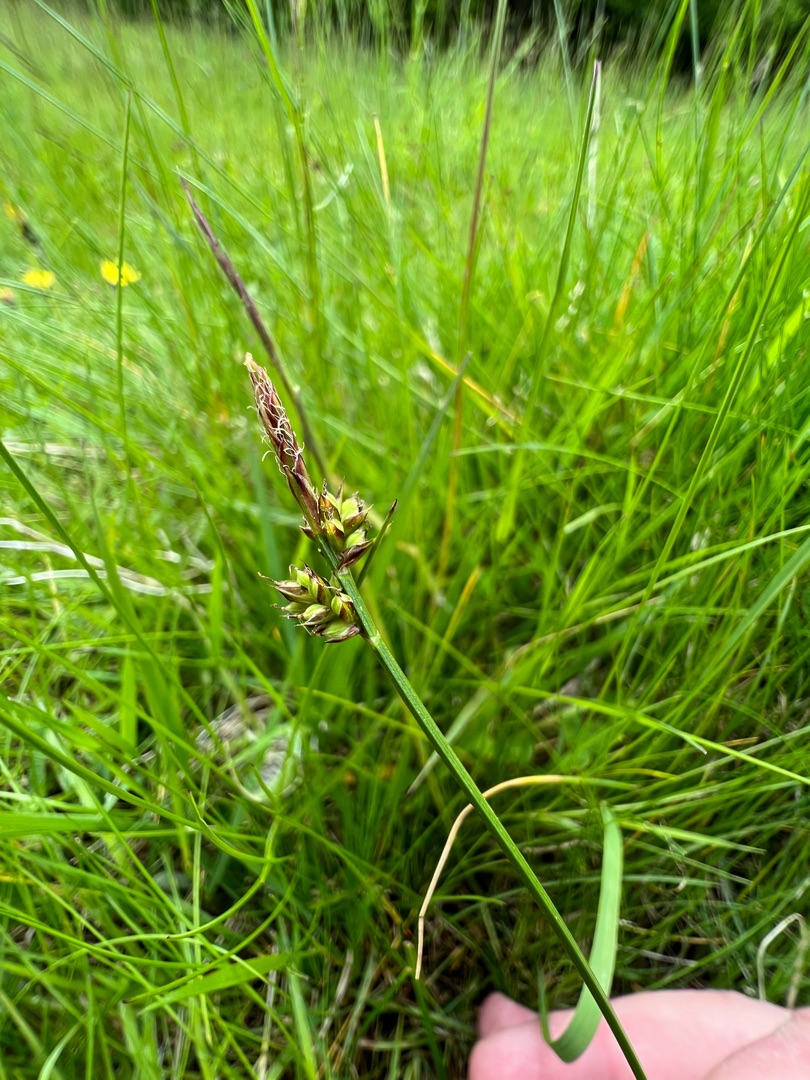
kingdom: Plantae
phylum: Tracheophyta
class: Liliopsida
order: Poales
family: Cyperaceae
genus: Carex
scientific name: Carex pilulifera
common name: Pille-star
